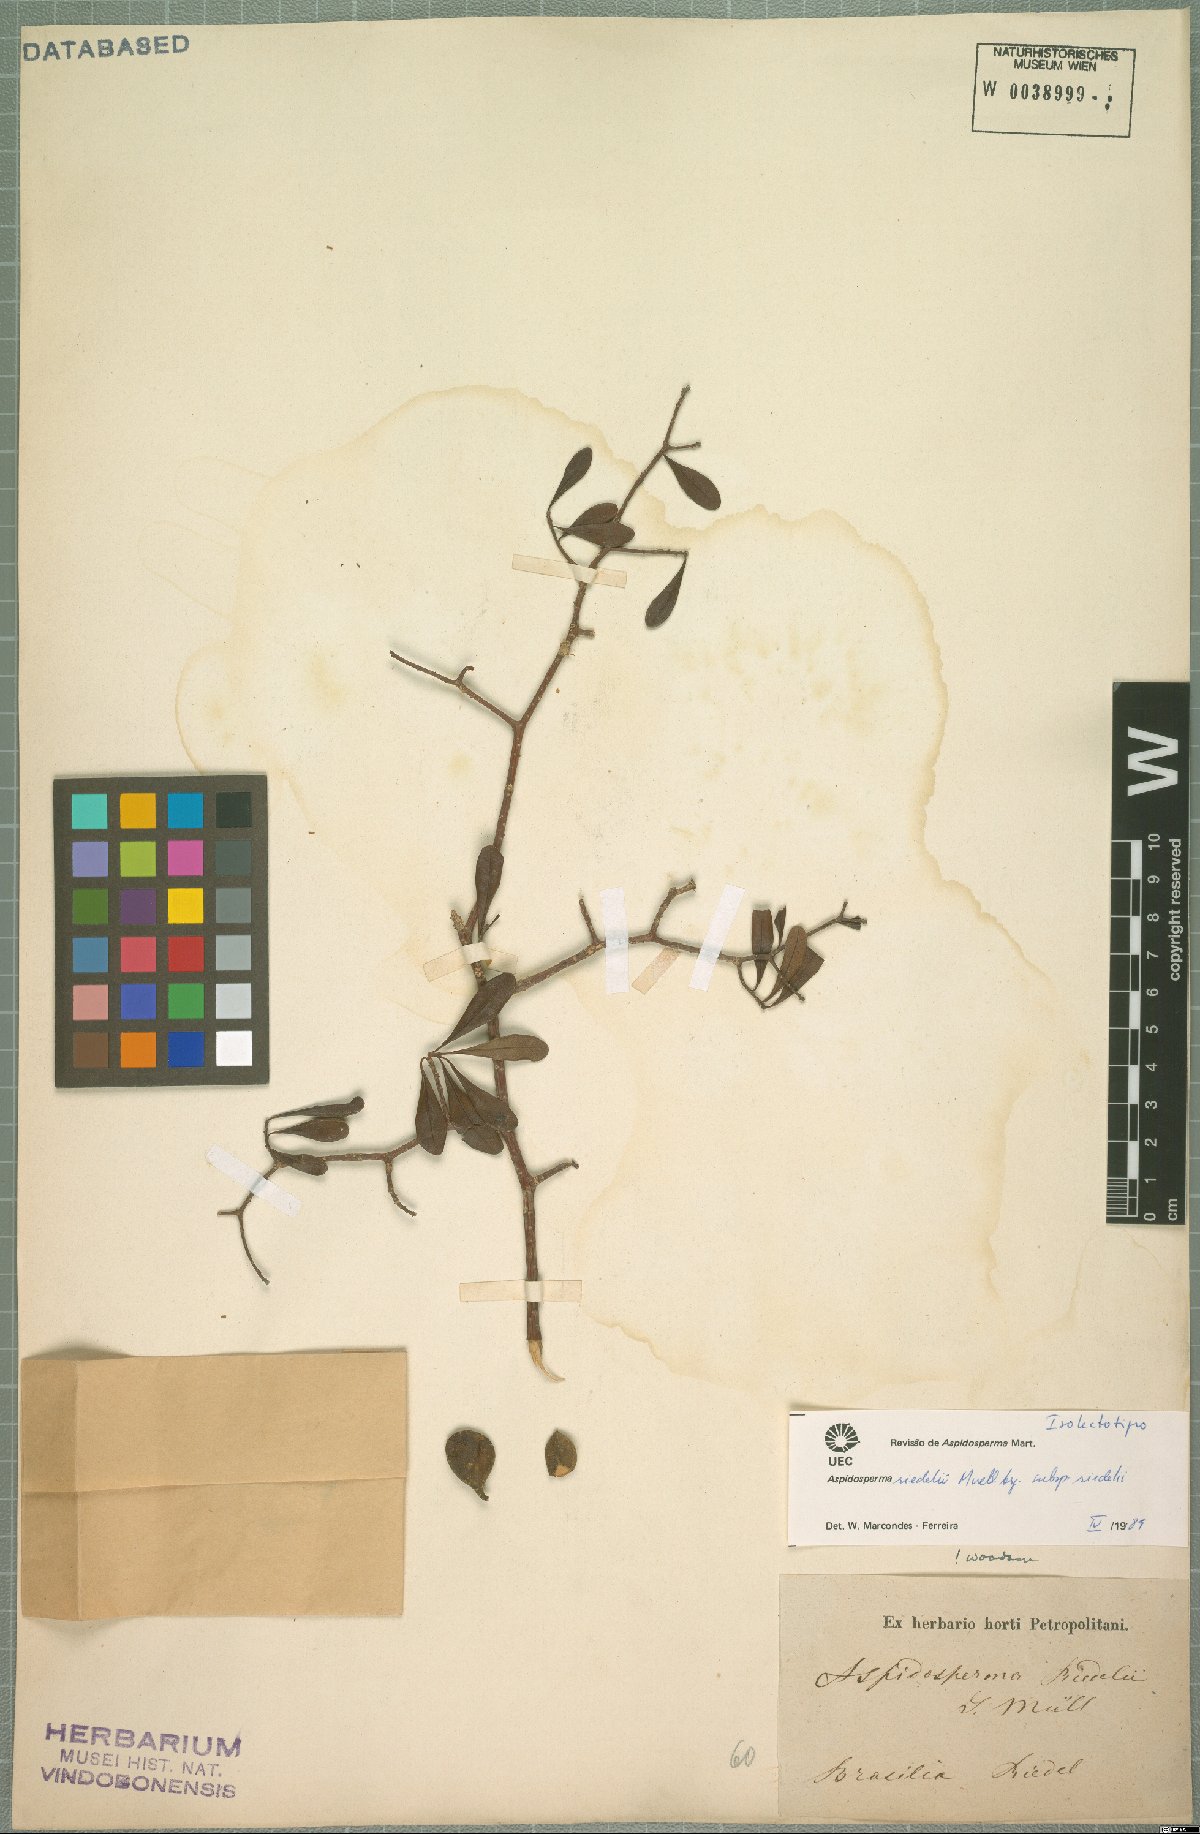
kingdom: Plantae
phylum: Tracheophyta
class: Magnoliopsida
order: Gentianales
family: Apocynaceae
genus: Aspidosperma
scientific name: Aspidosperma riedelii
